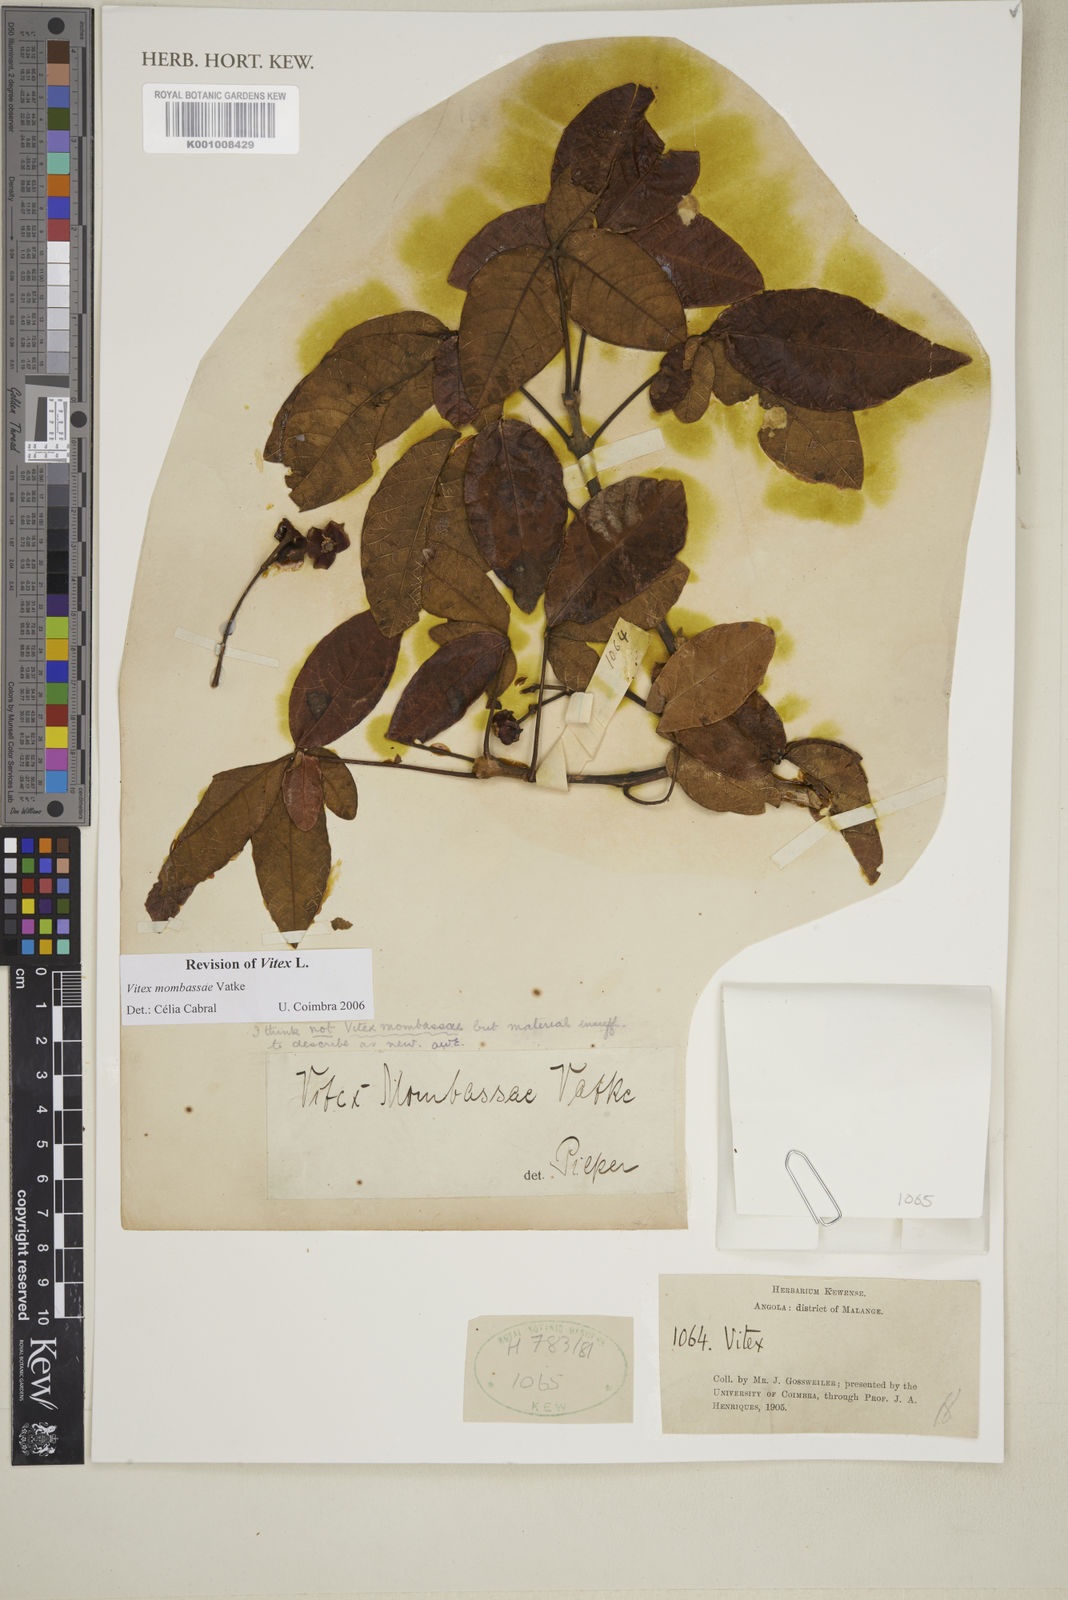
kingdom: Plantae
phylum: Tracheophyta
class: Magnoliopsida
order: Lamiales
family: Lamiaceae
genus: Vitex
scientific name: Vitex mombassae
